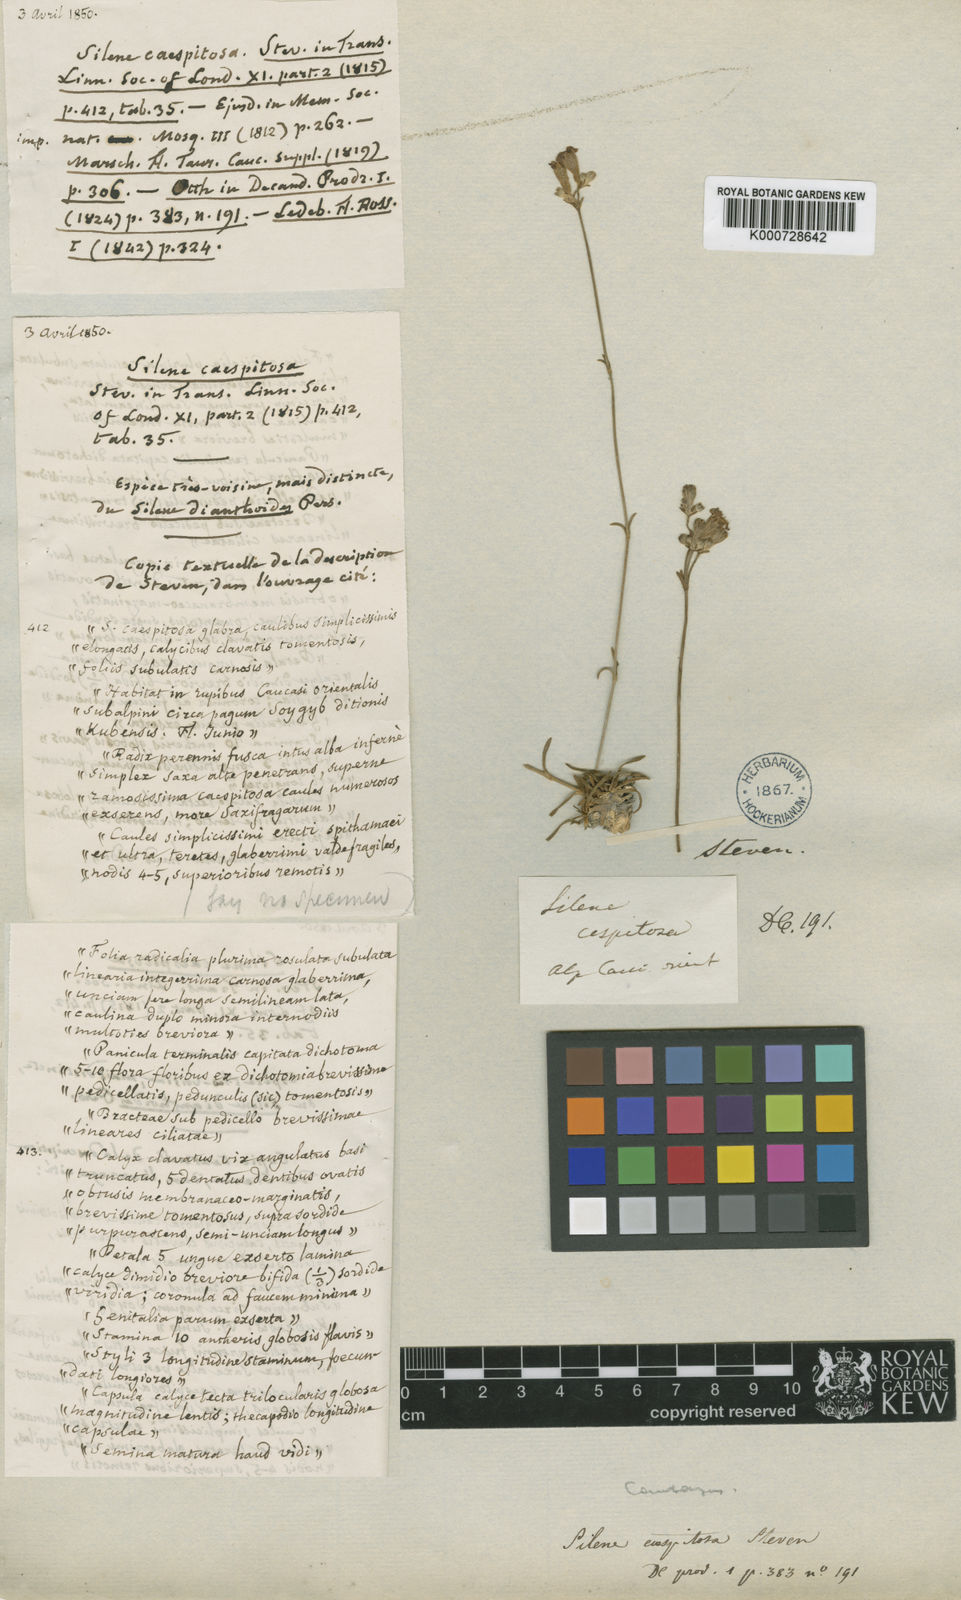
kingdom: Plantae
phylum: Tracheophyta
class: Magnoliopsida
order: Caryophyllales
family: Caryophyllaceae
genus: Silene
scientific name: Silene
